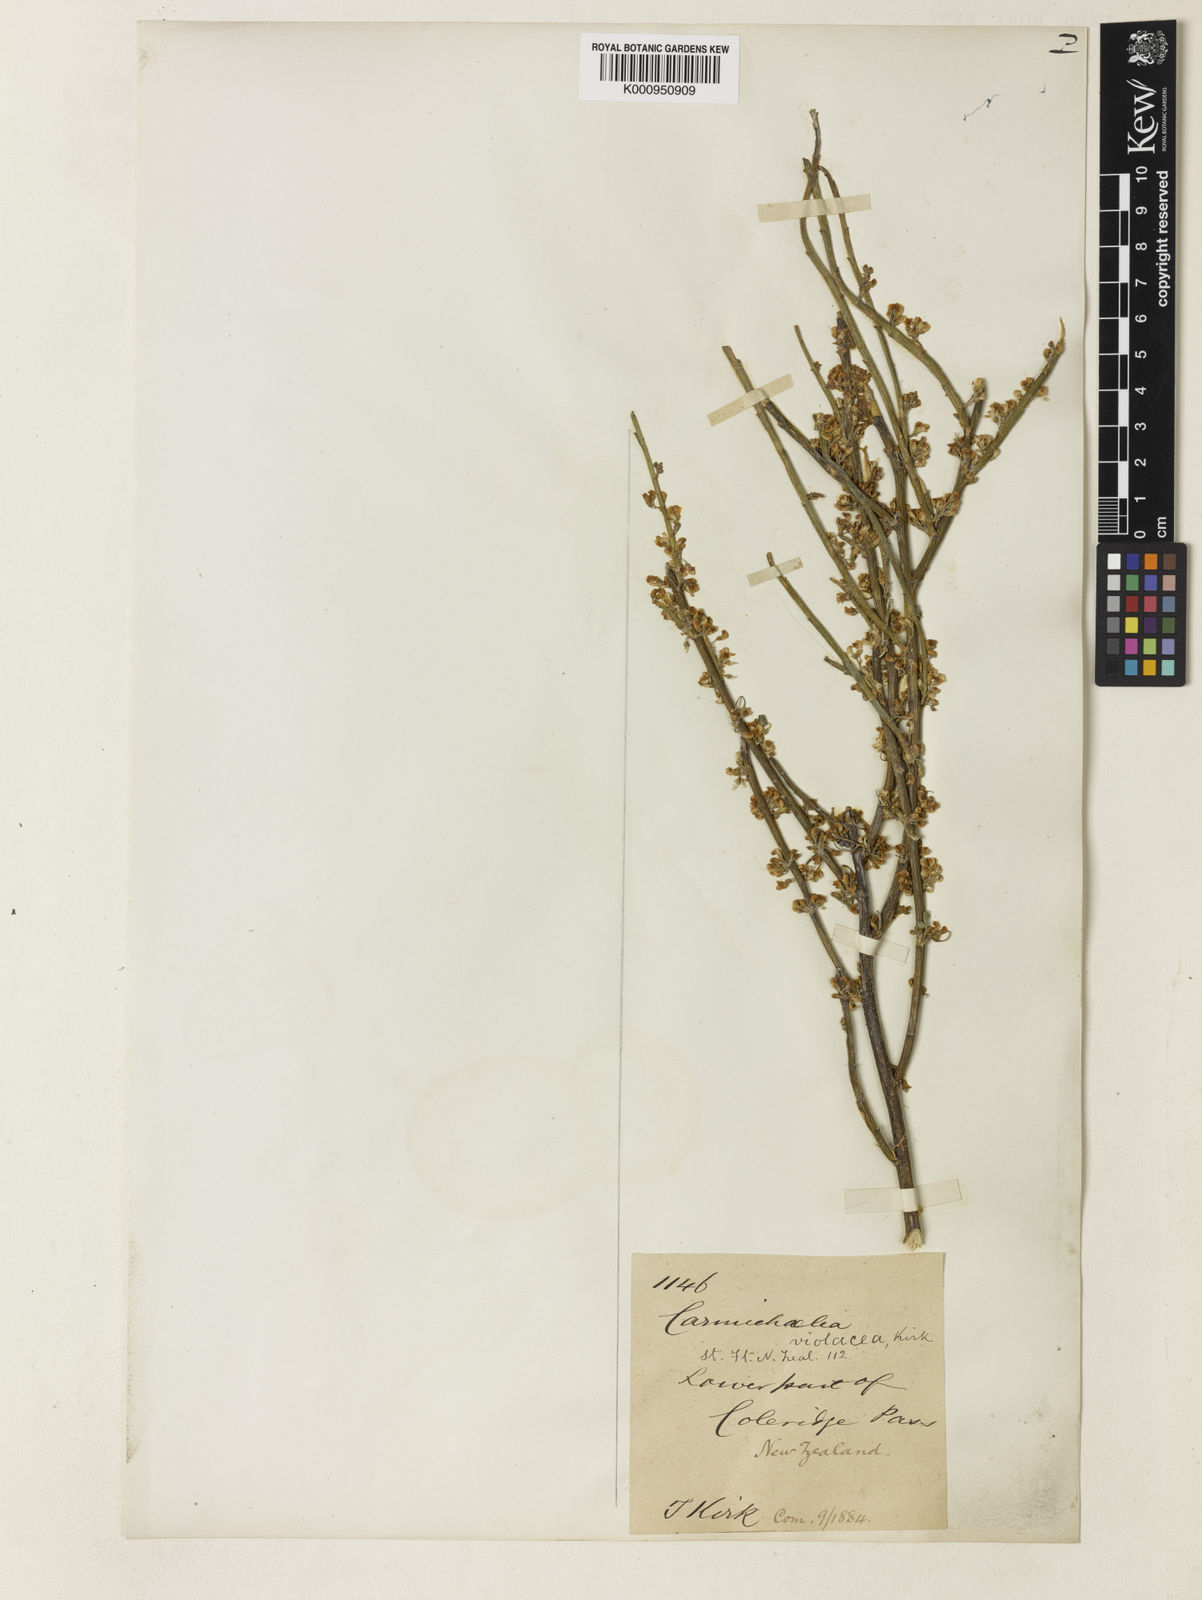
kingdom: Plantae
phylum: Tracheophyta
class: Magnoliopsida
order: Fabales
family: Fabaceae
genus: Carmichaelia
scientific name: Carmichaelia australis
